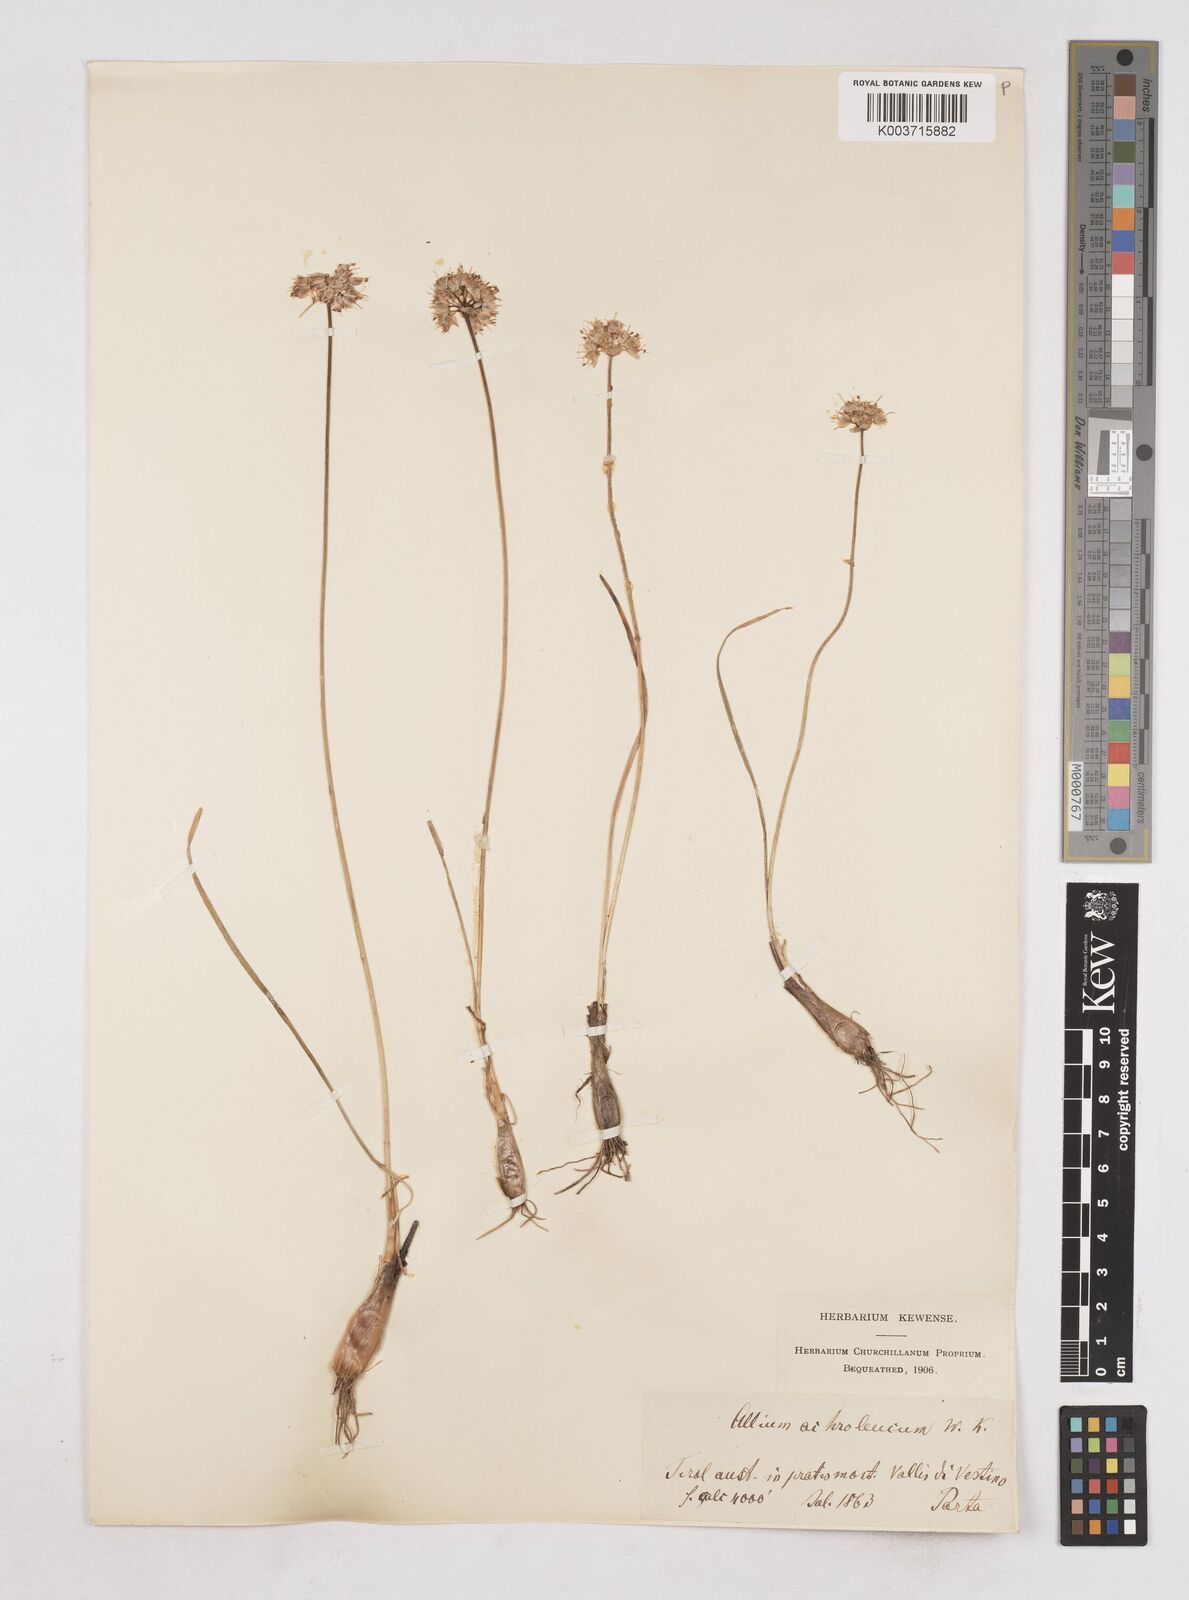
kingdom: Plantae
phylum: Tracheophyta
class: Liliopsida
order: Asparagales
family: Amaryllidaceae
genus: Allium
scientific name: Allium ericetorum
